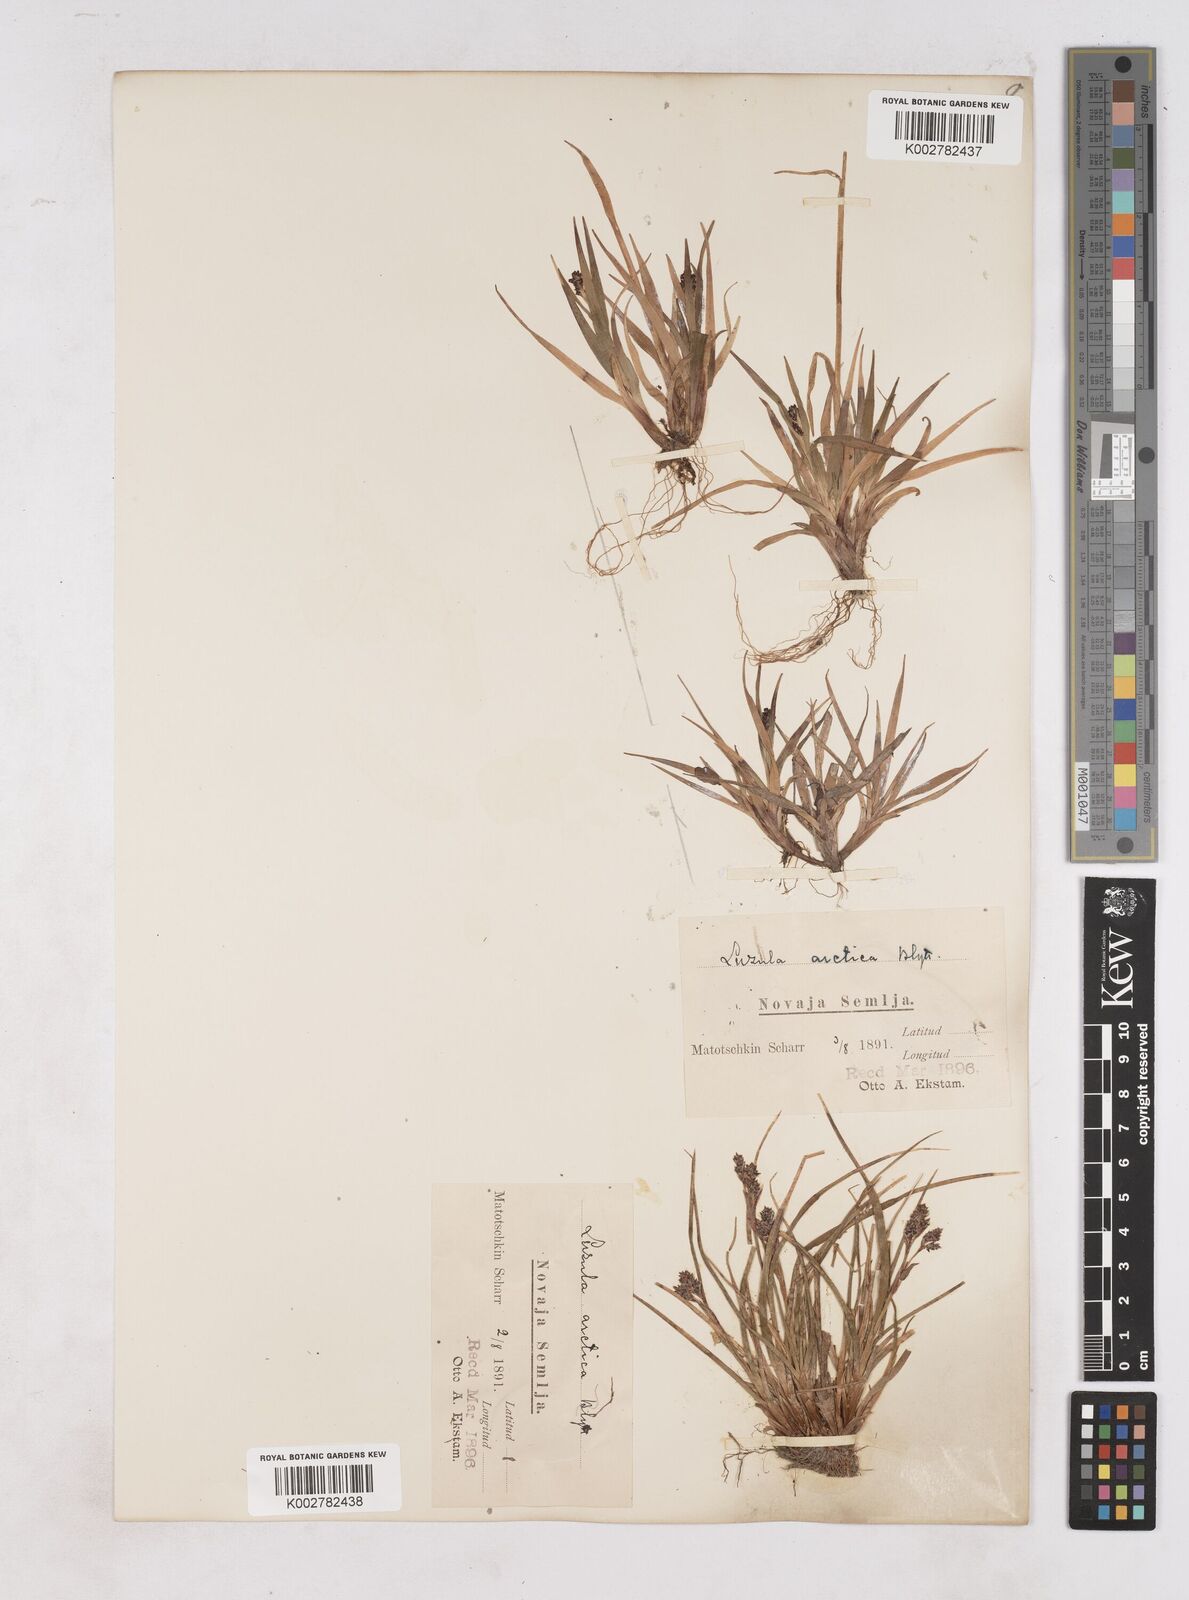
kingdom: Plantae
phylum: Tracheophyta
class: Liliopsida
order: Poales
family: Juncaceae
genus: Luzula
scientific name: Luzula nivalis
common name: Arctic woodrush
